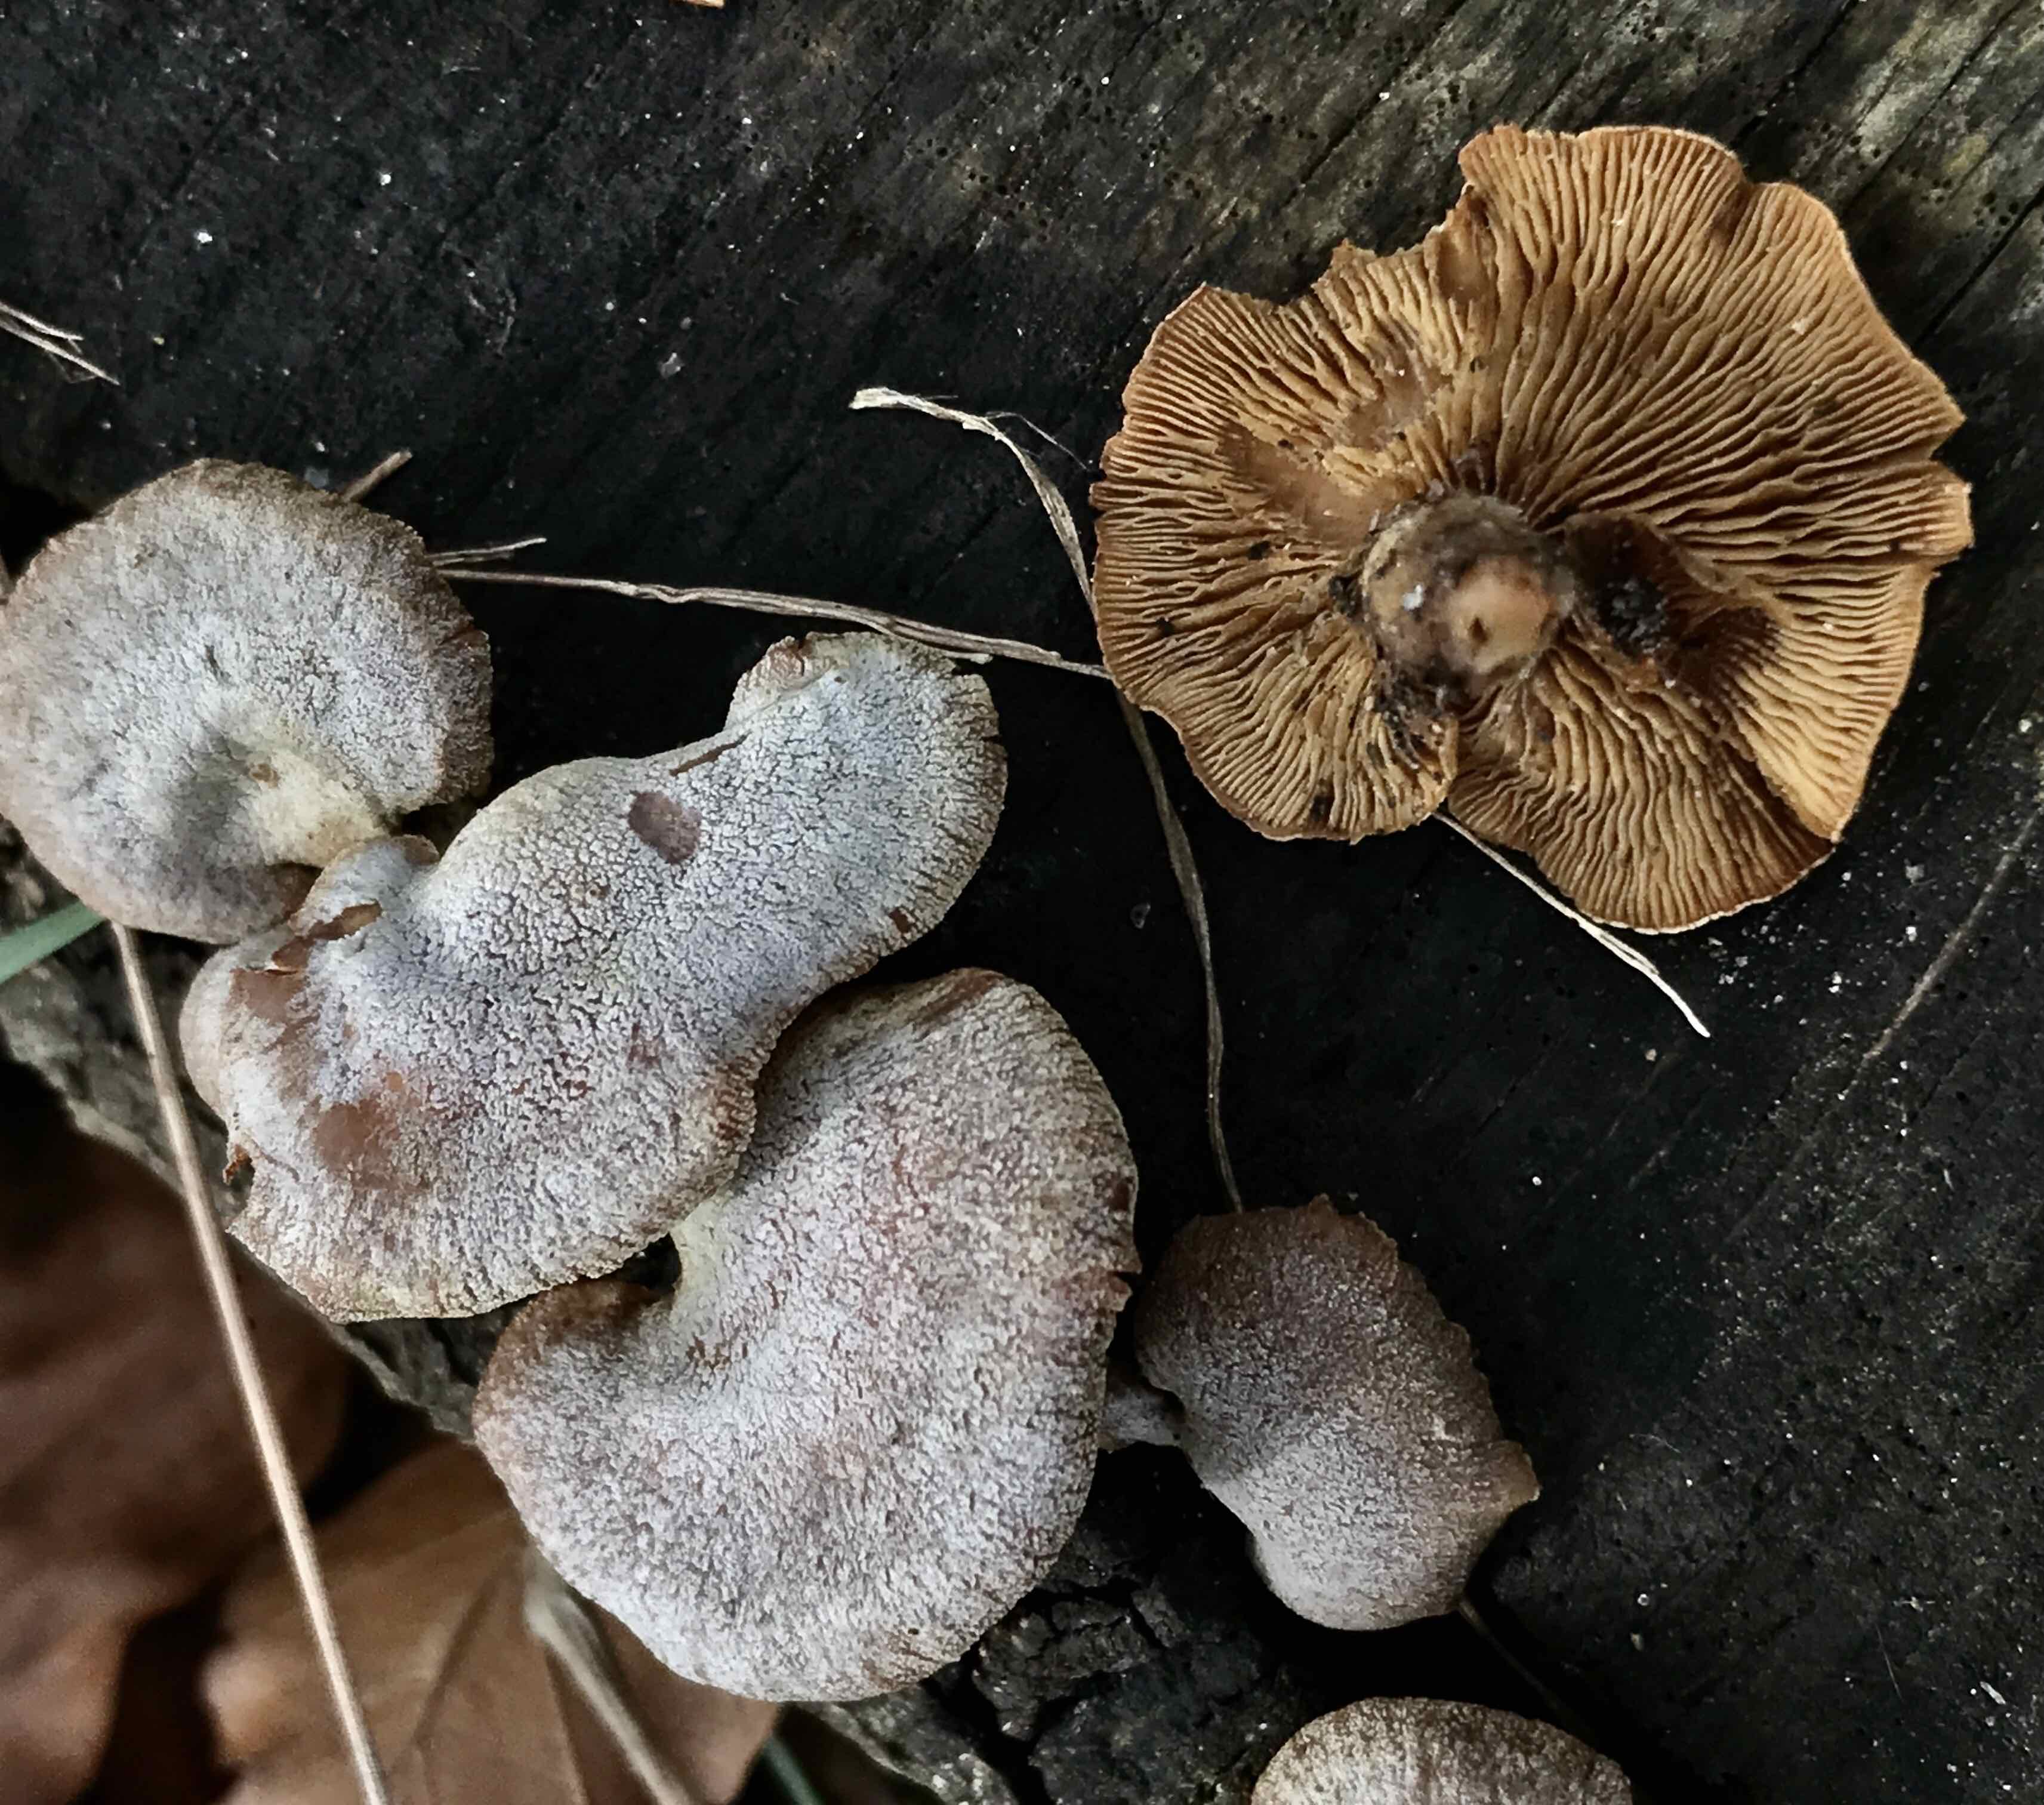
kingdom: Fungi
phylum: Basidiomycota
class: Agaricomycetes
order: Agaricales
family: Mycenaceae
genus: Panellus
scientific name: Panellus stipticus
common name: kliddet epaulethat
